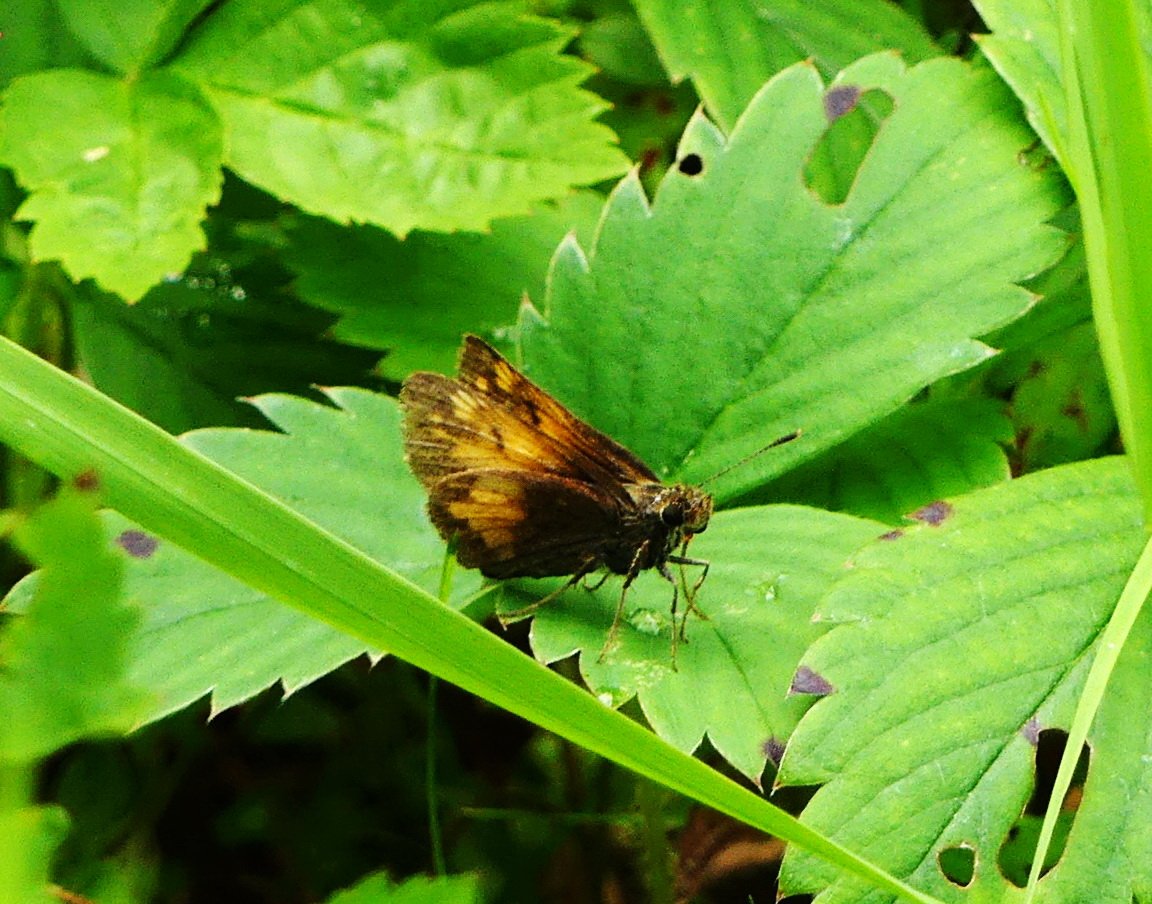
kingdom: Animalia
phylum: Arthropoda
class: Insecta
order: Lepidoptera
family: Hesperiidae
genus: Lon
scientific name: Lon hobomok
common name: Hobomok Skipper
